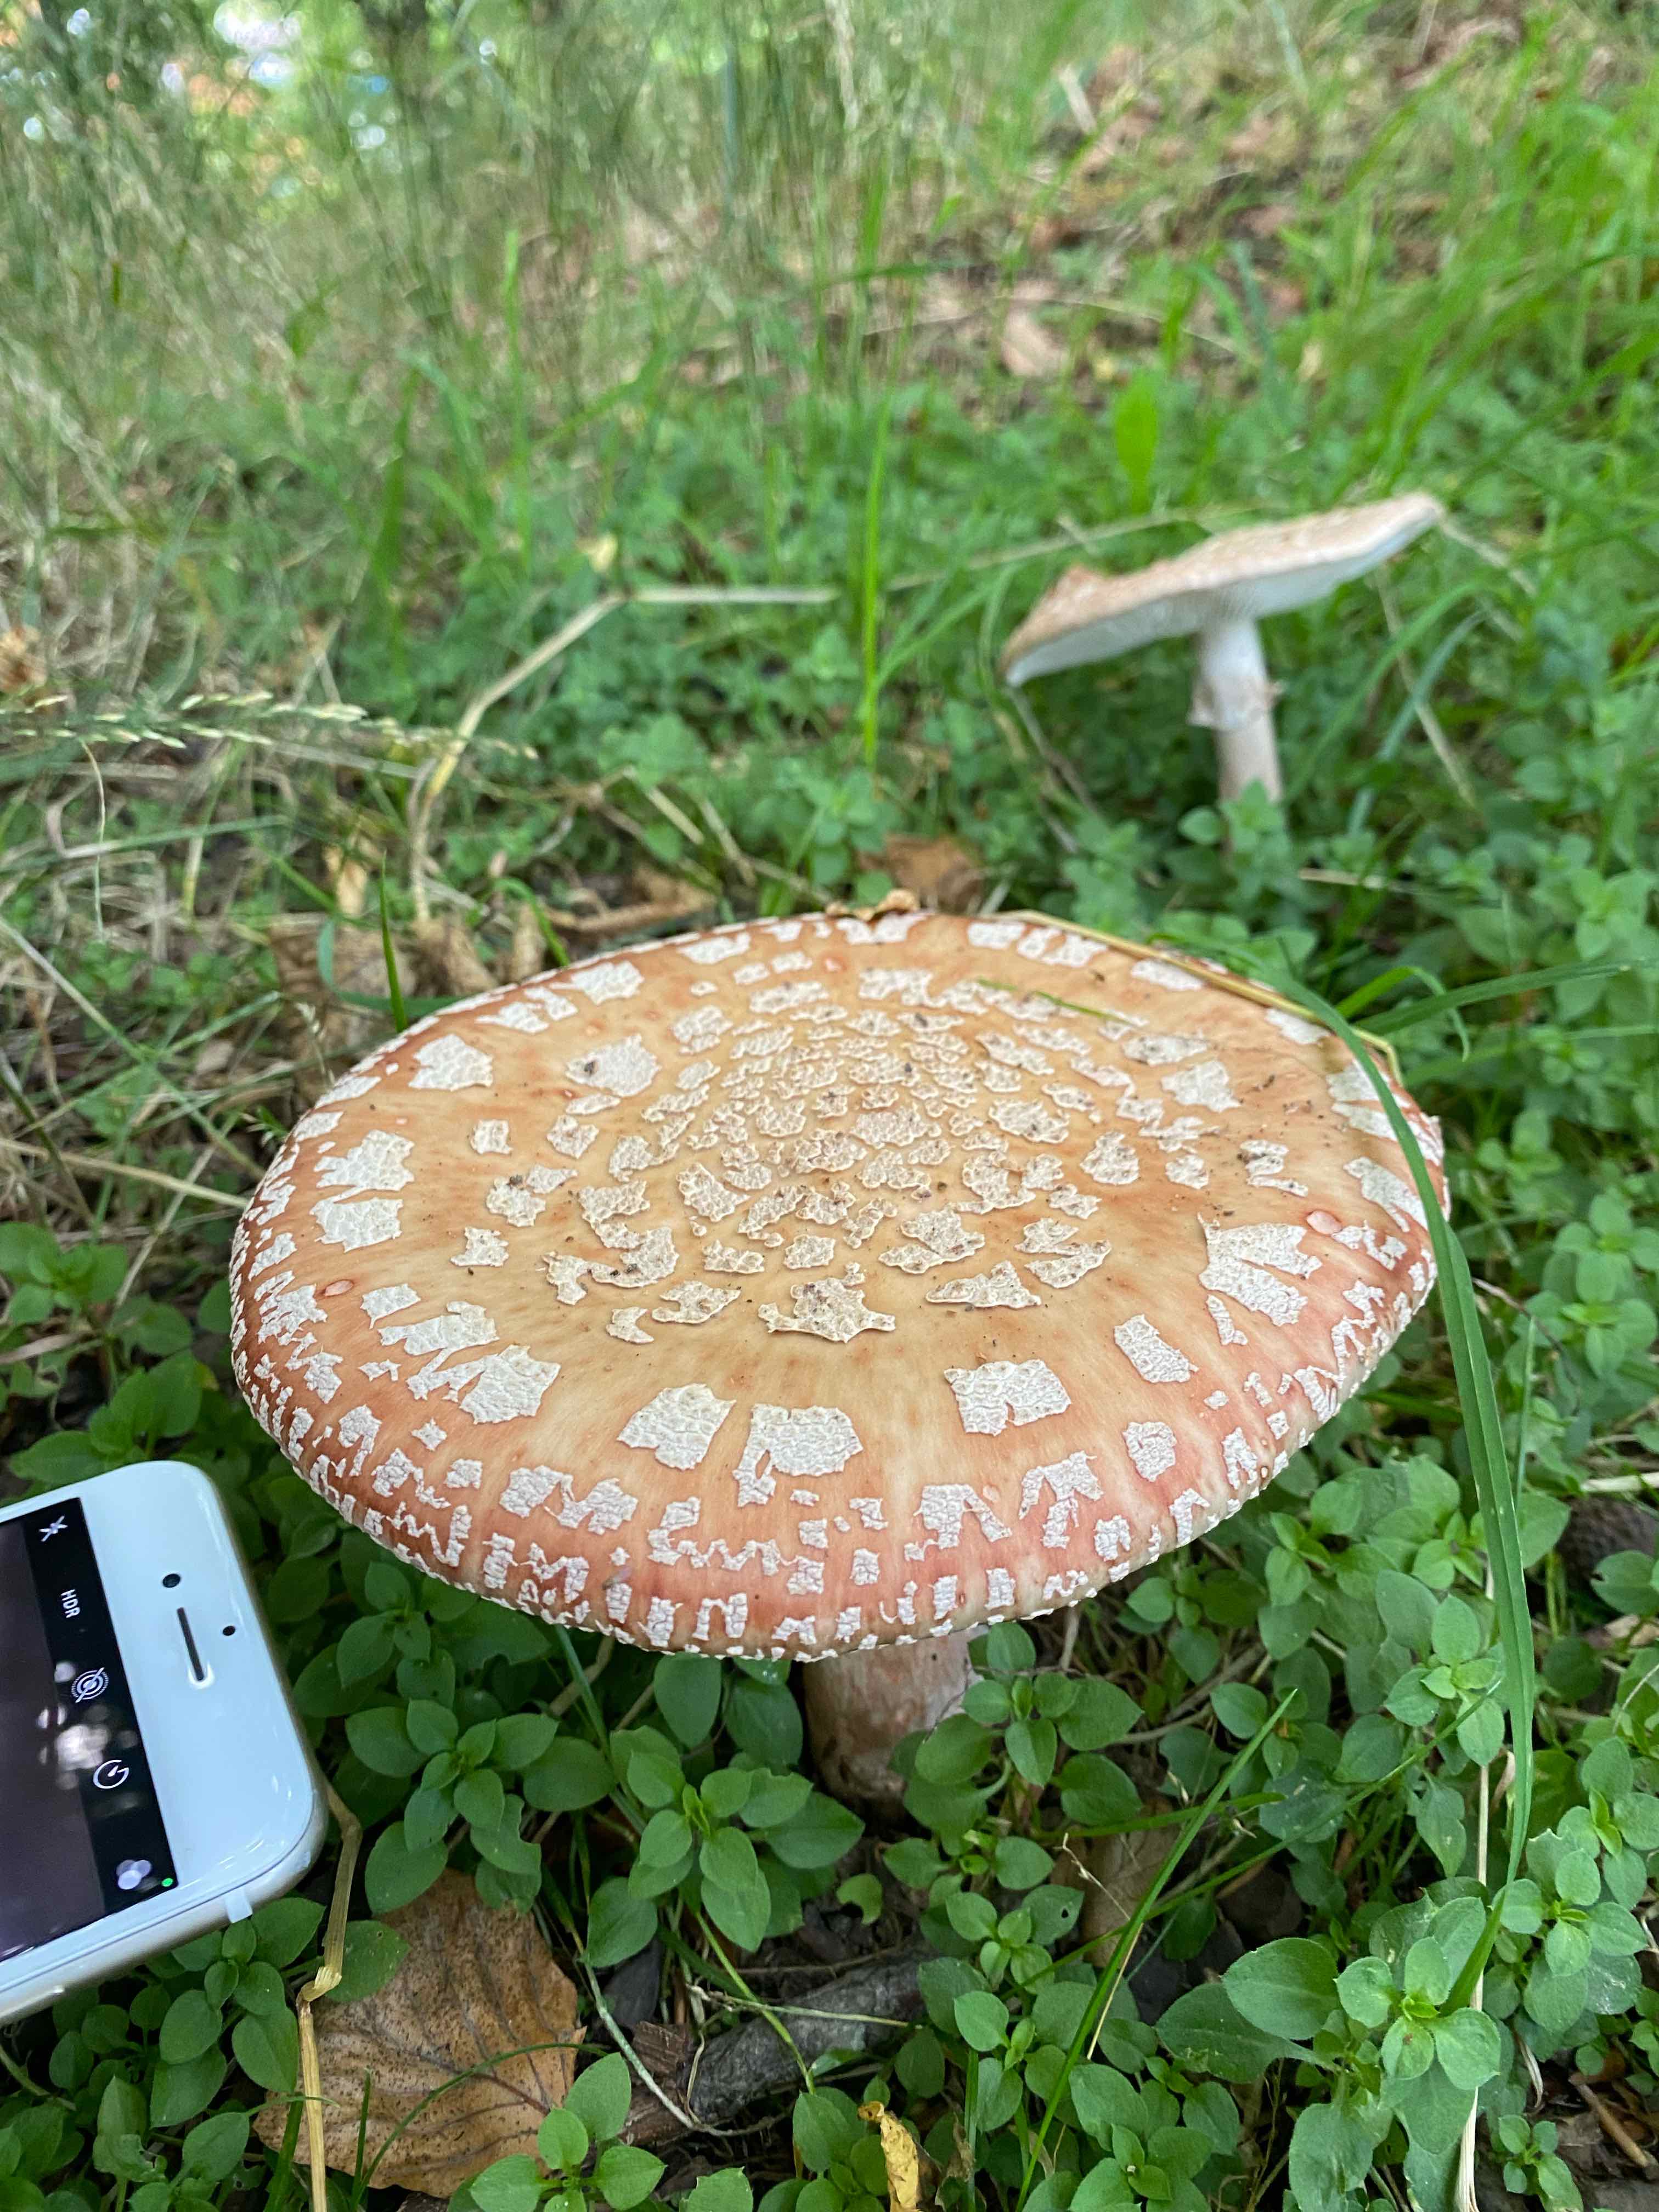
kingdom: Fungi
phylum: Basidiomycota
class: Agaricomycetes
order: Agaricales
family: Amanitaceae
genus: Amanita
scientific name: Amanita rubescens
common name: rødmende fluesvamp
